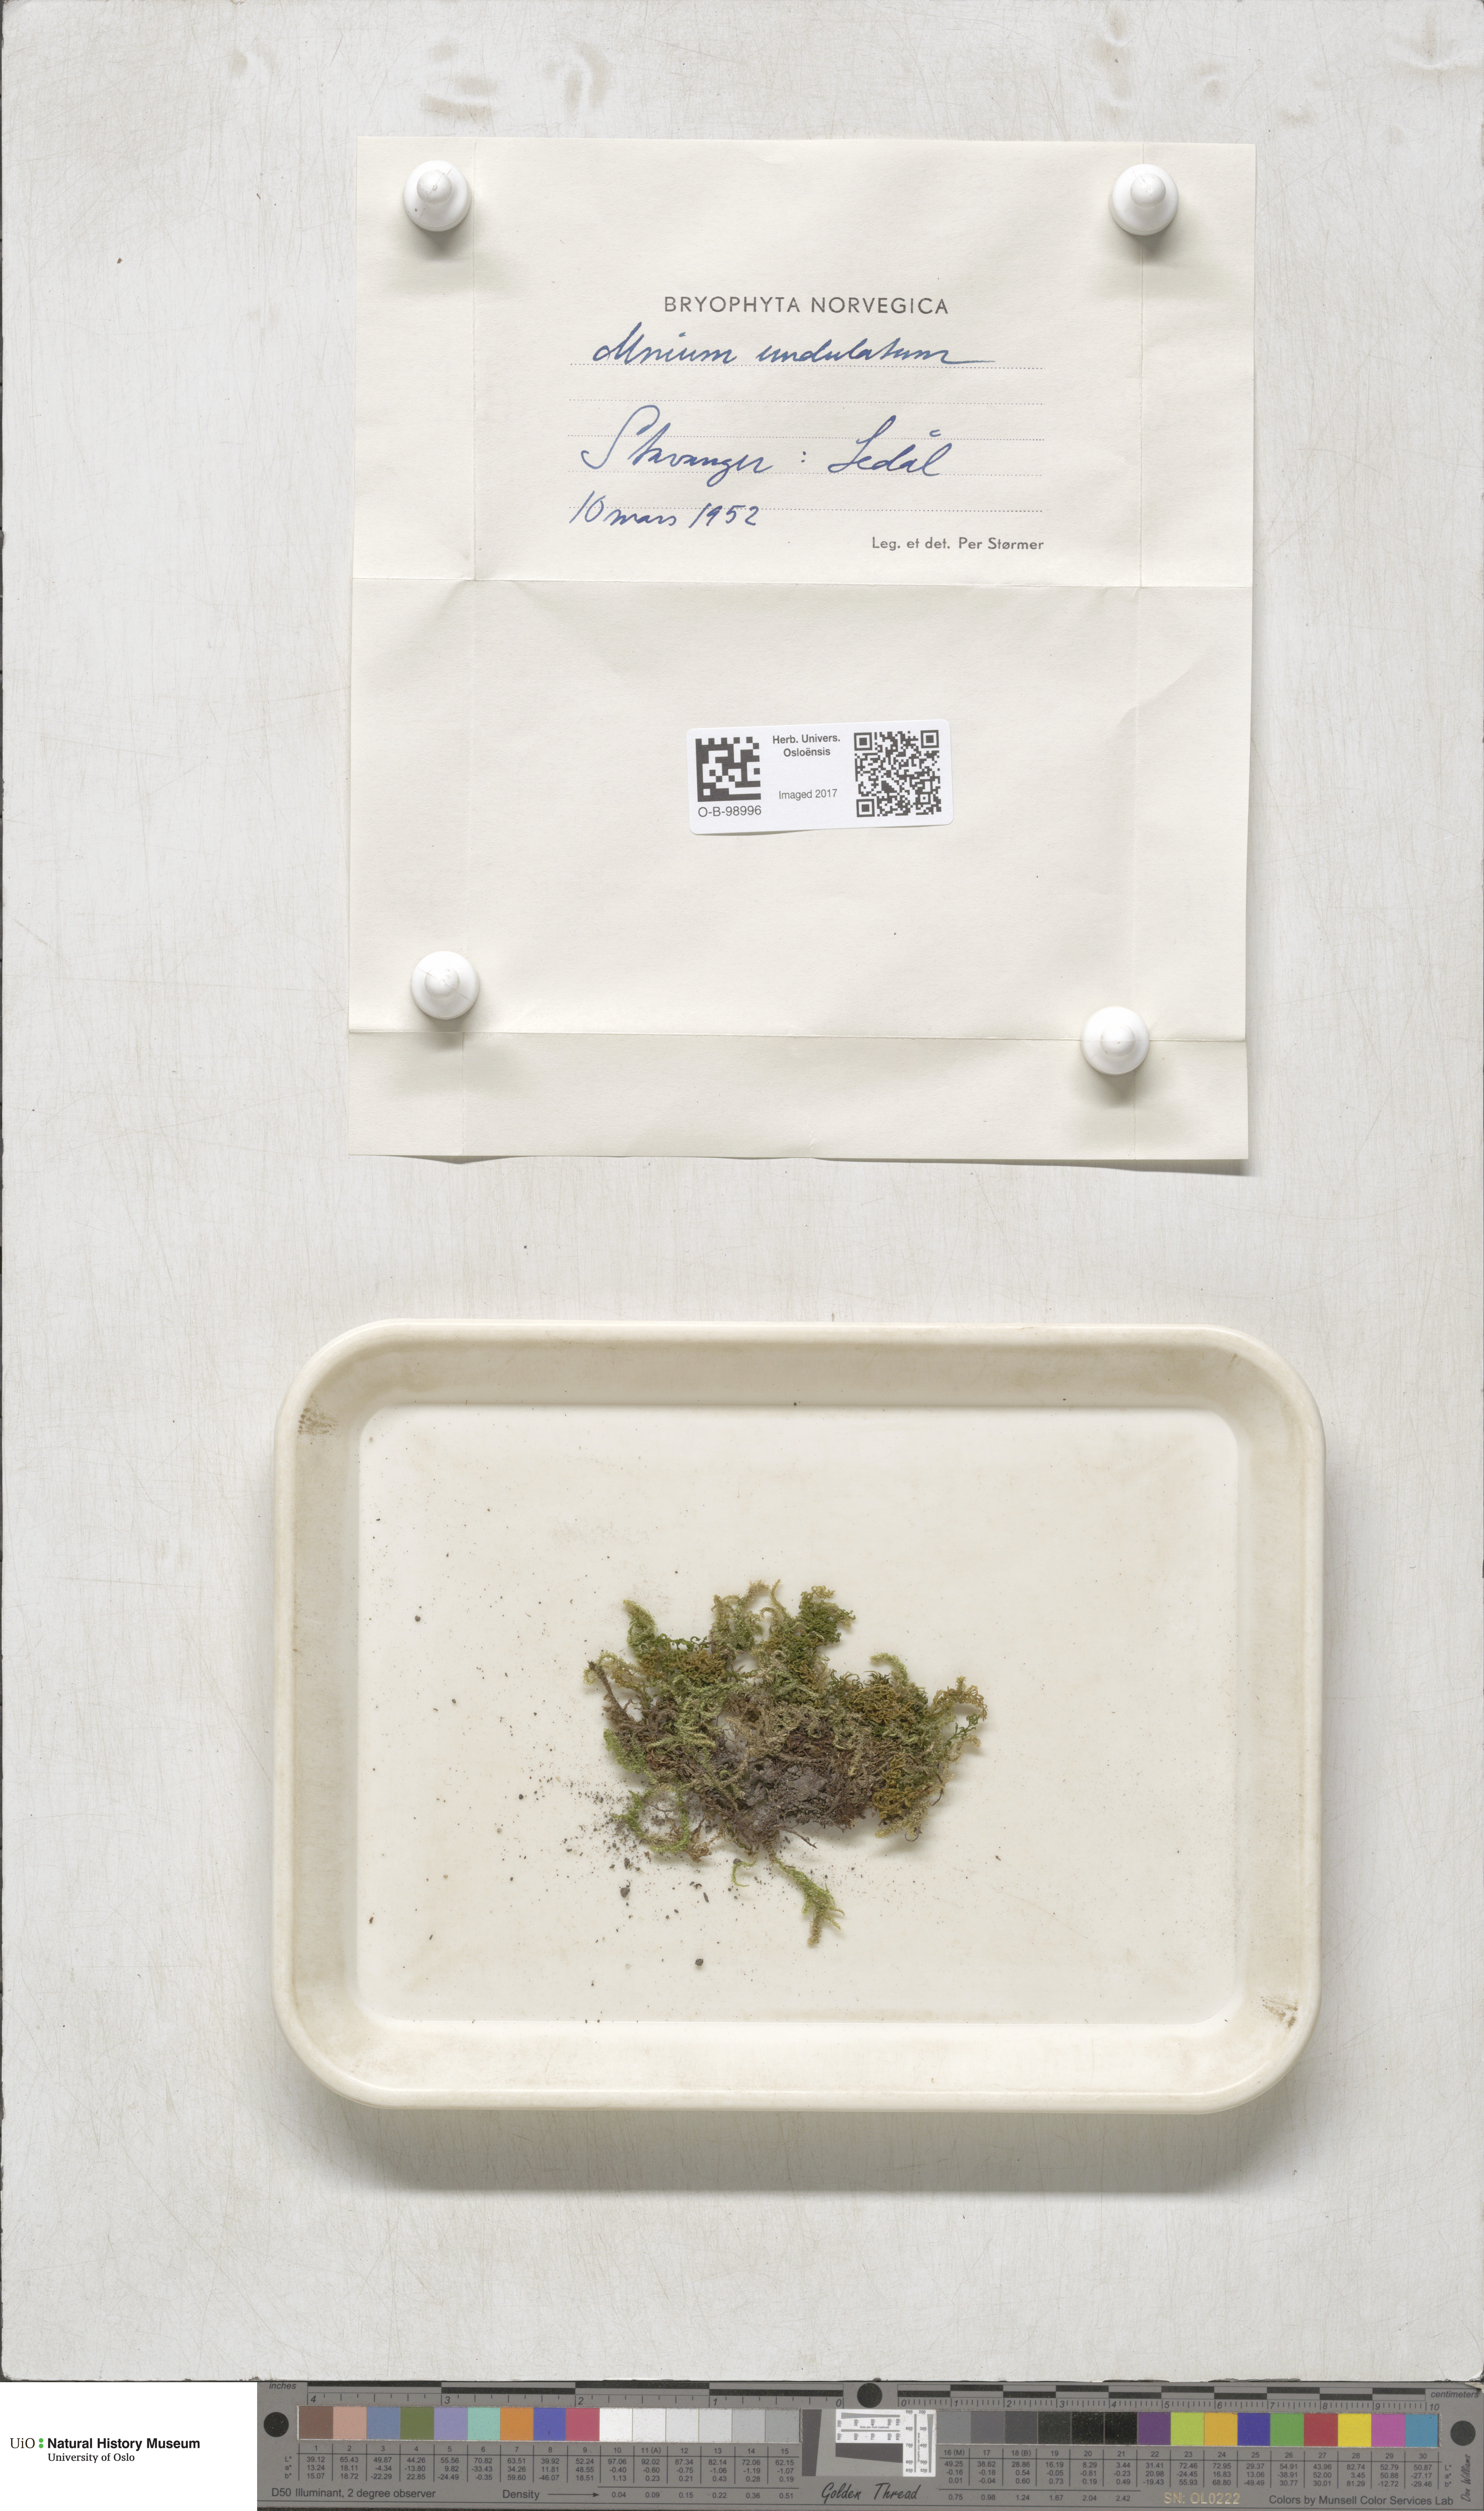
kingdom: Plantae
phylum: Bryophyta
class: Bryopsida
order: Bryales
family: Mniaceae
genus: Plagiomnium
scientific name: Plagiomnium undulatum
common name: Hart's-tongue thyme-moss
